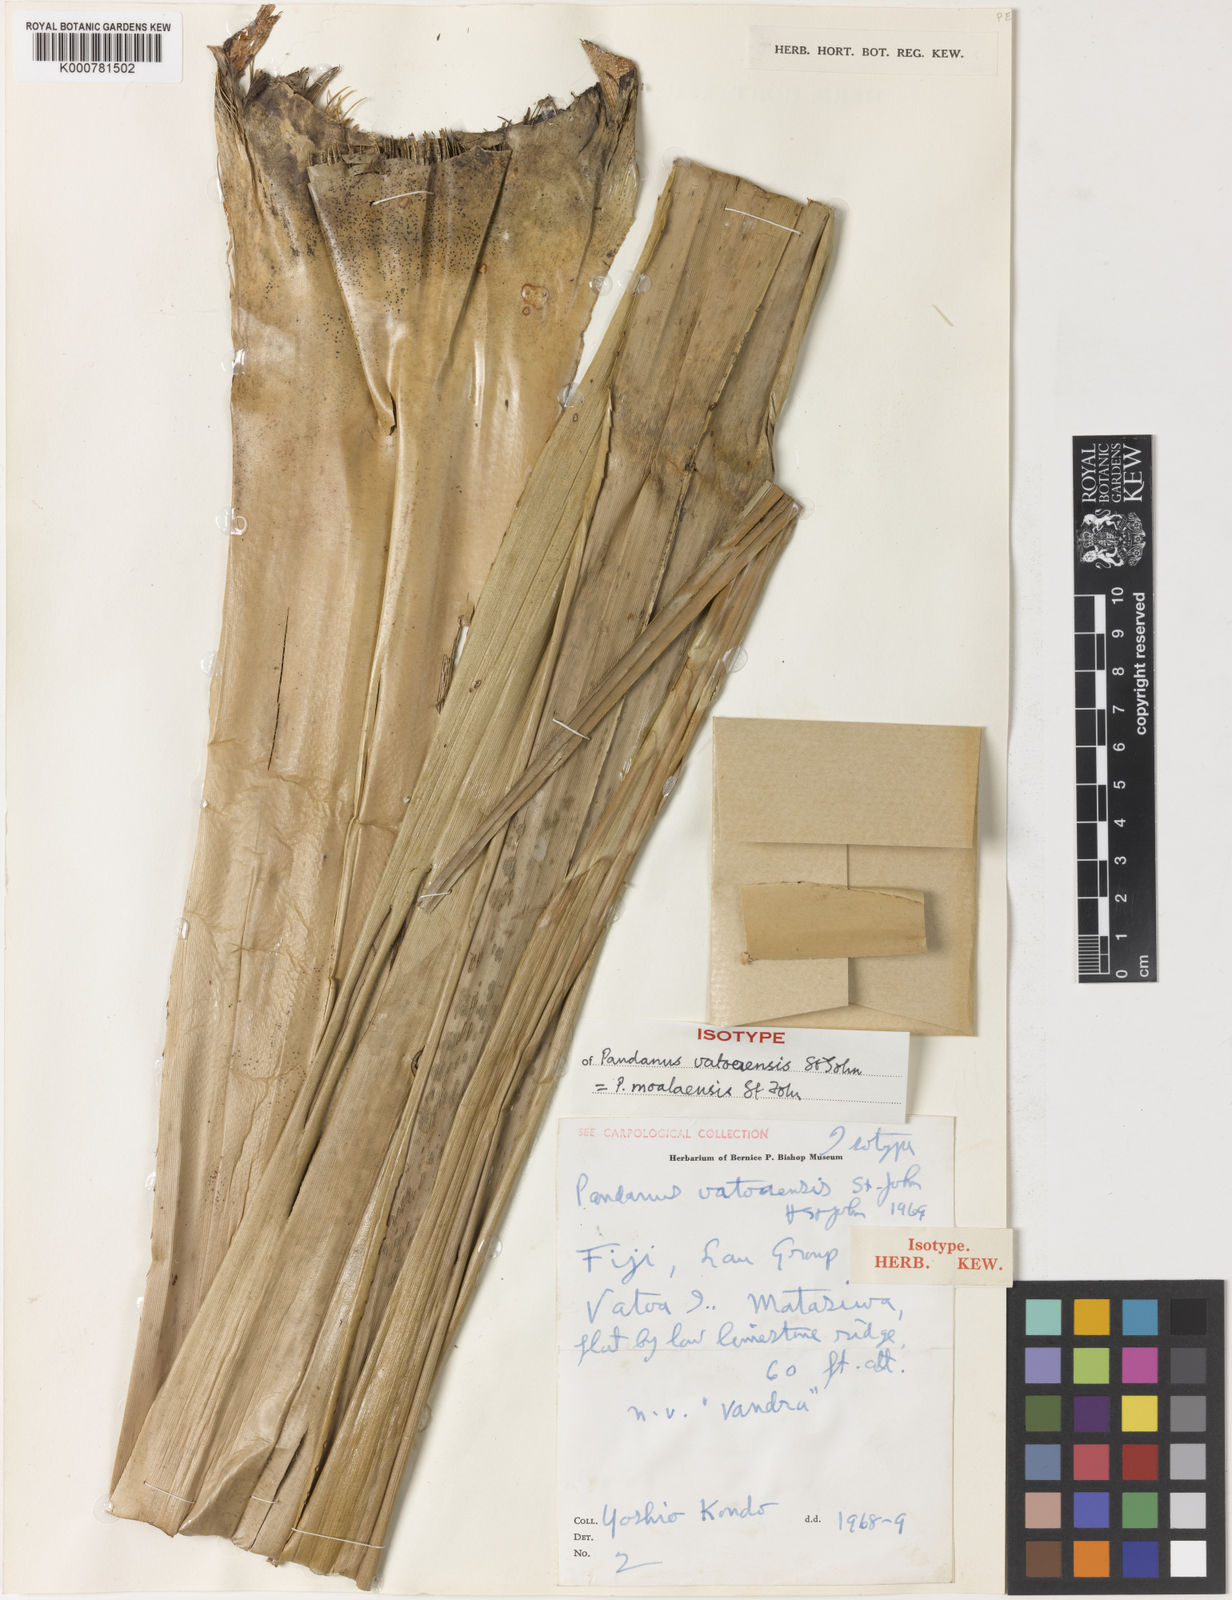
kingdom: Plantae
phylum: Tracheophyta
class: Liliopsida
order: Pandanales
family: Pandanaceae
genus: Pandanus
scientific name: Pandanus moalaensis
